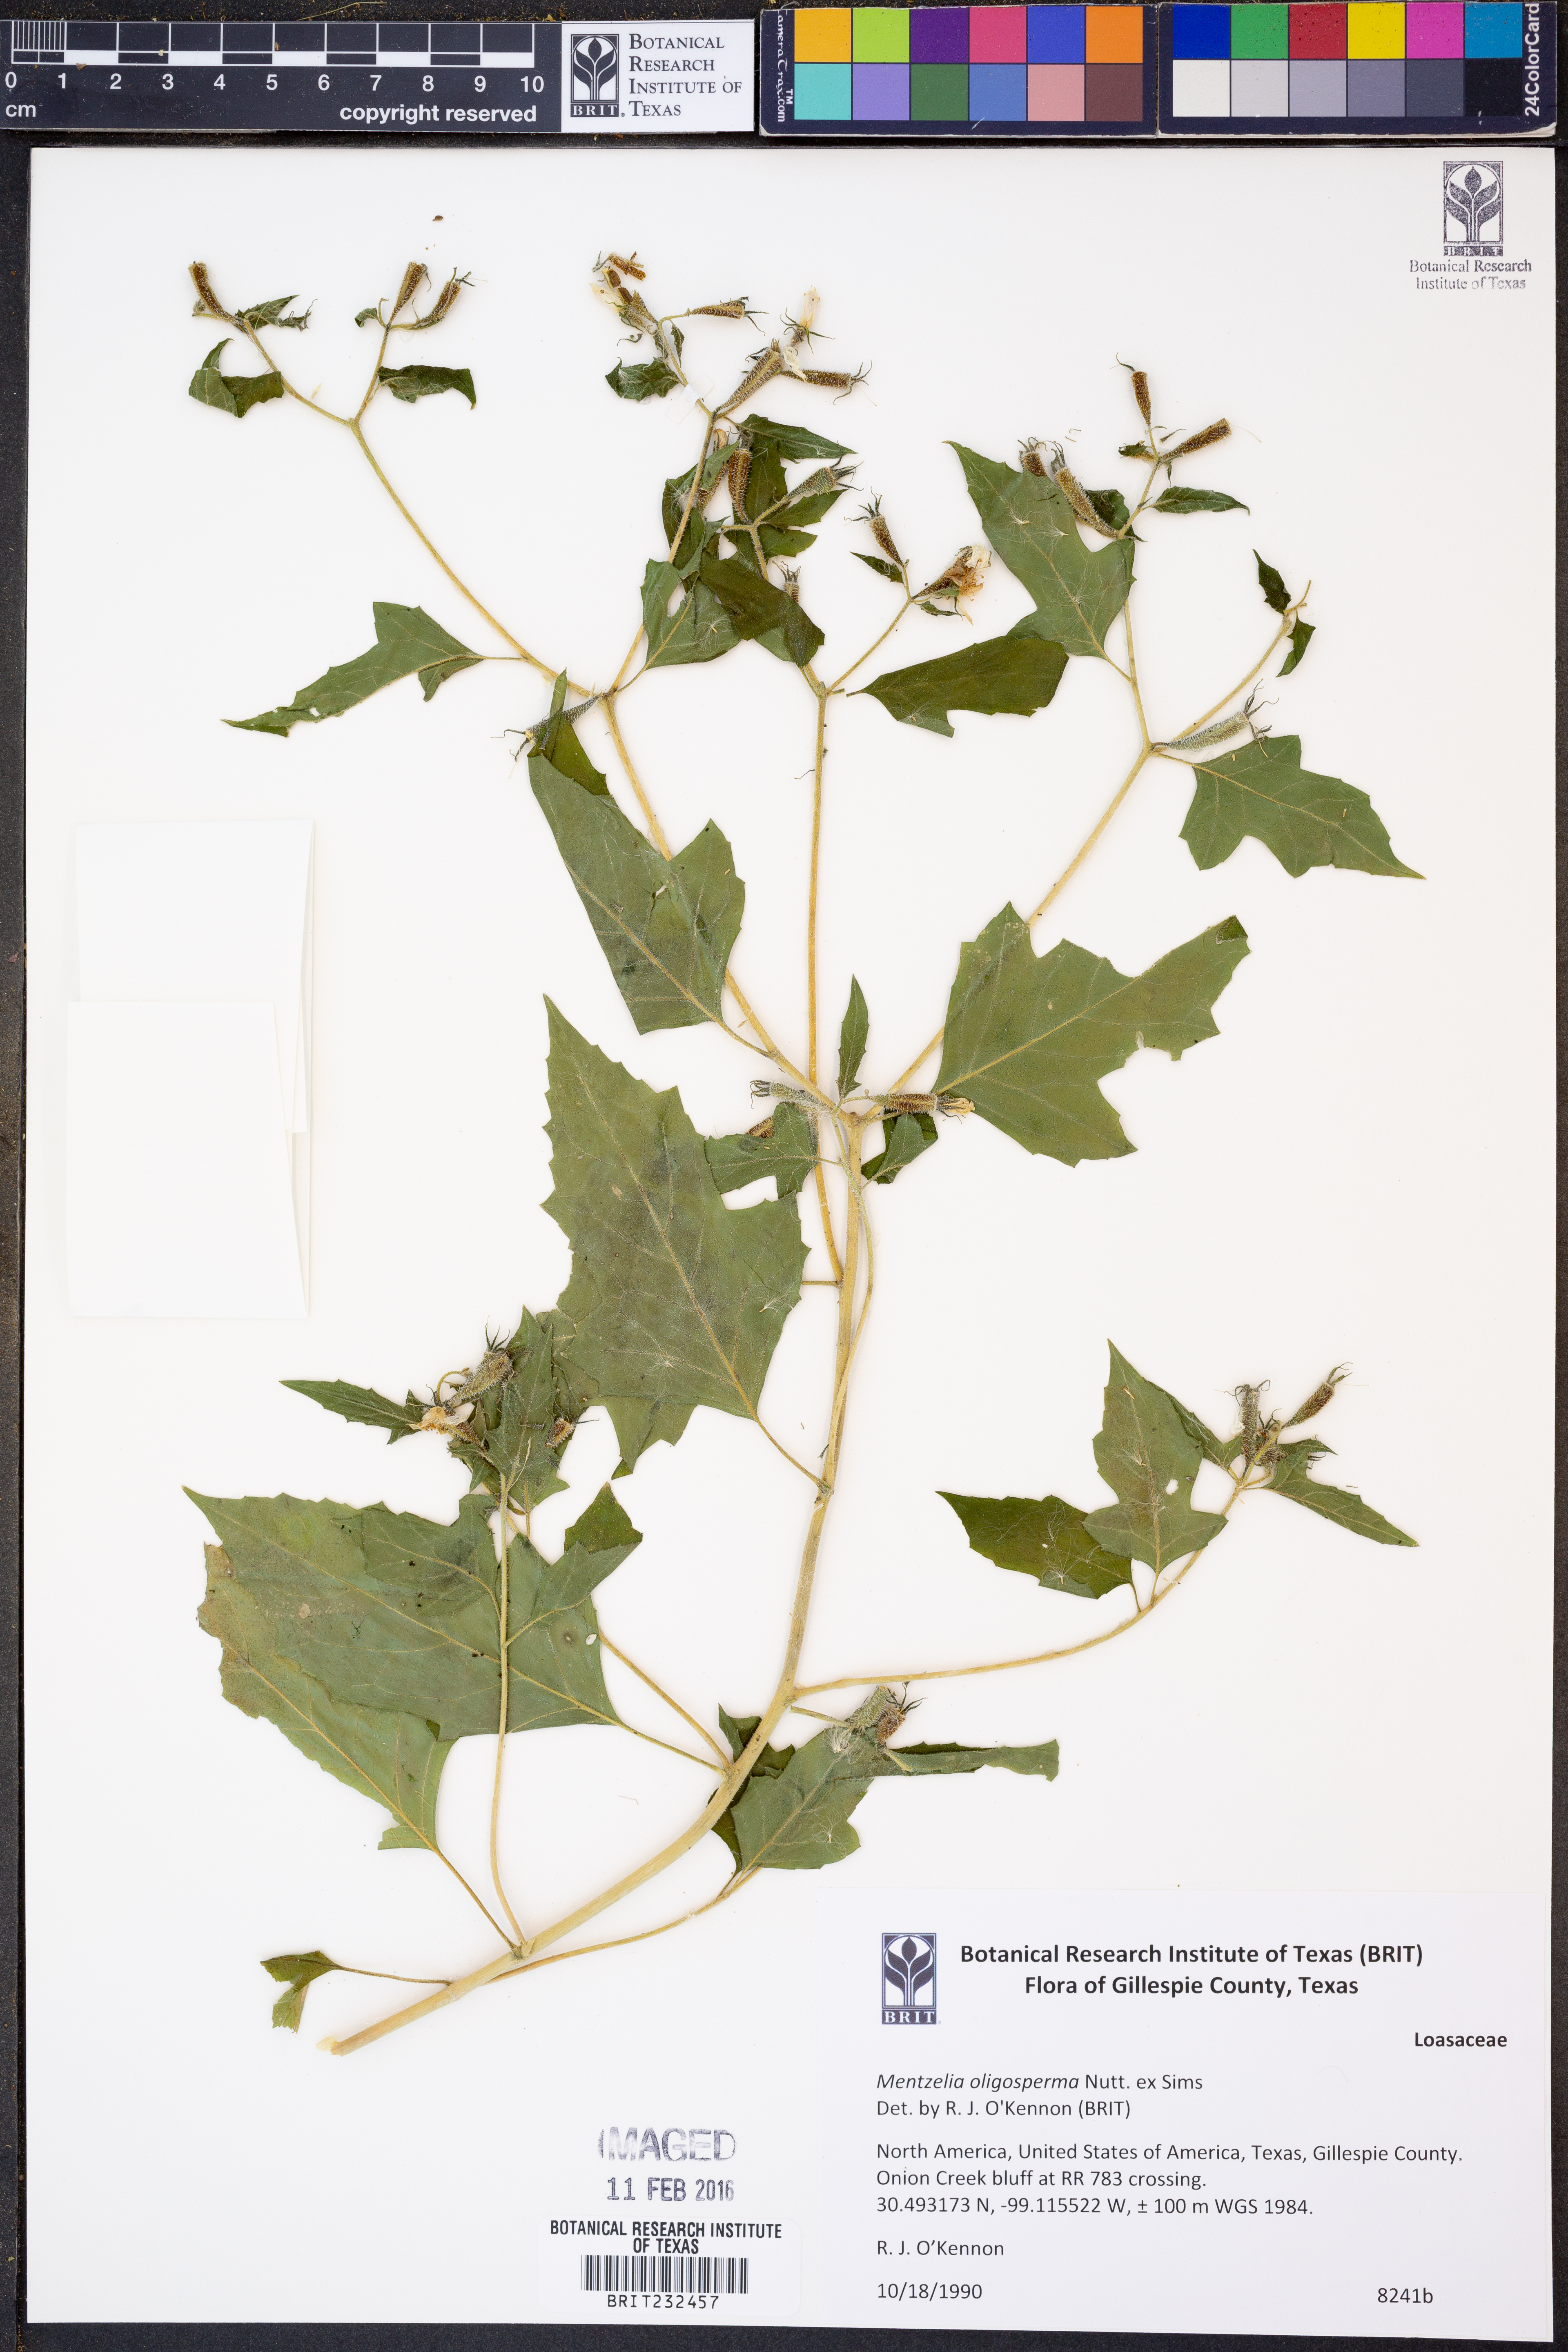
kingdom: Plantae
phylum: Tracheophyta
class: Magnoliopsida
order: Cornales
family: Loasaceae
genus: Mentzelia
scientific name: Mentzelia oligosperma
